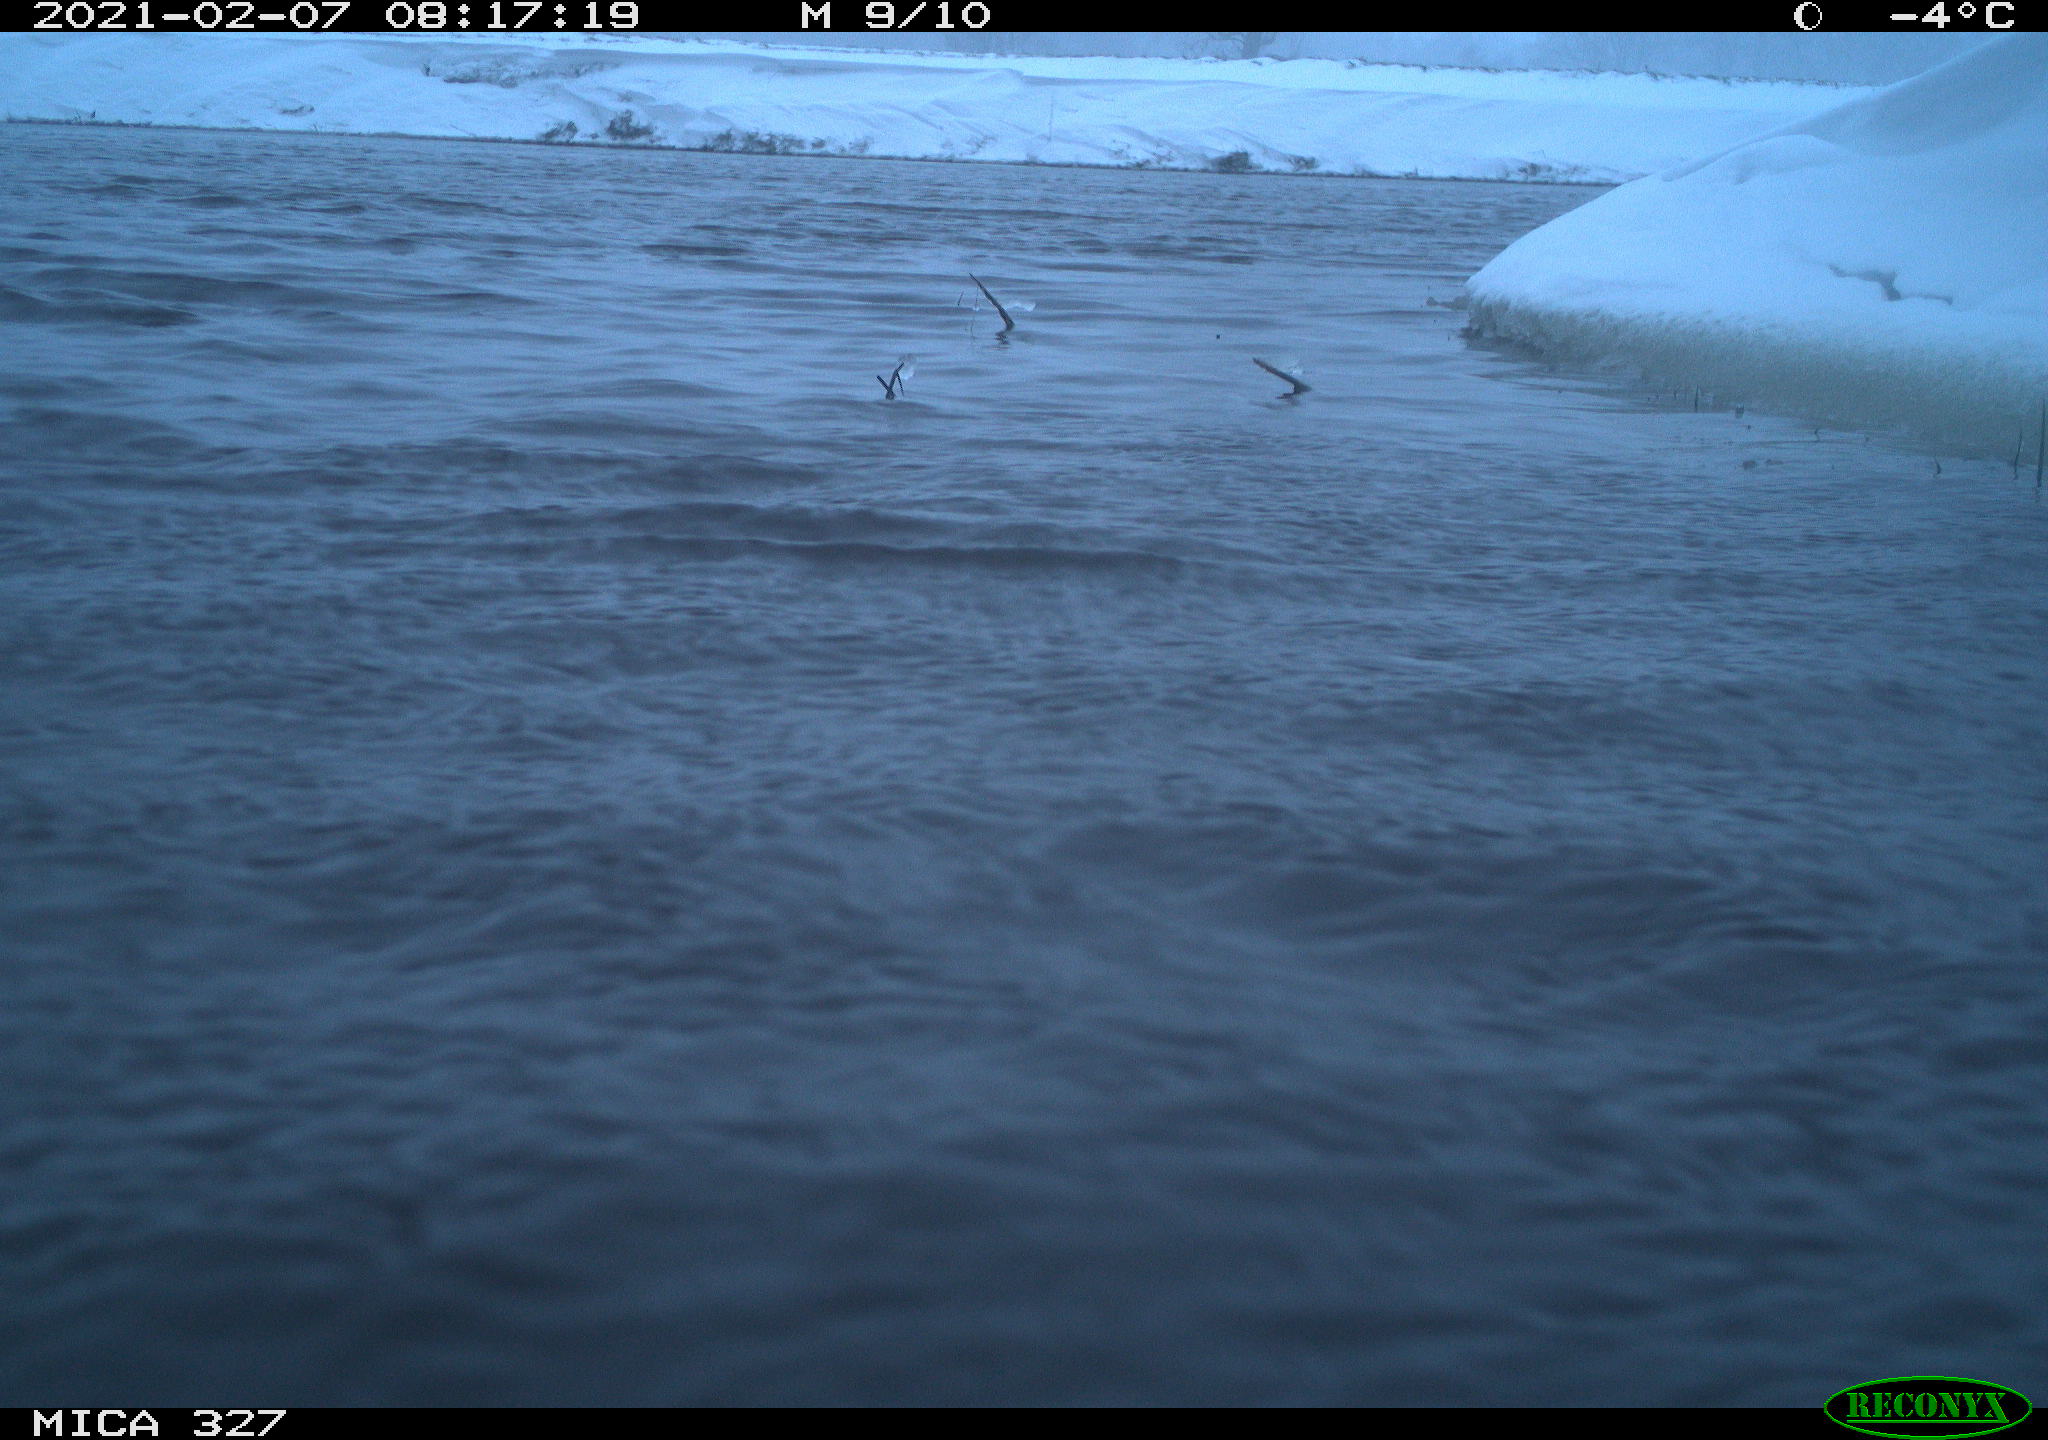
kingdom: Animalia
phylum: Chordata
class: Aves
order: Suliformes
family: Phalacrocoracidae
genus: Phalacrocorax
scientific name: Phalacrocorax carbo
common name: Great cormorant
